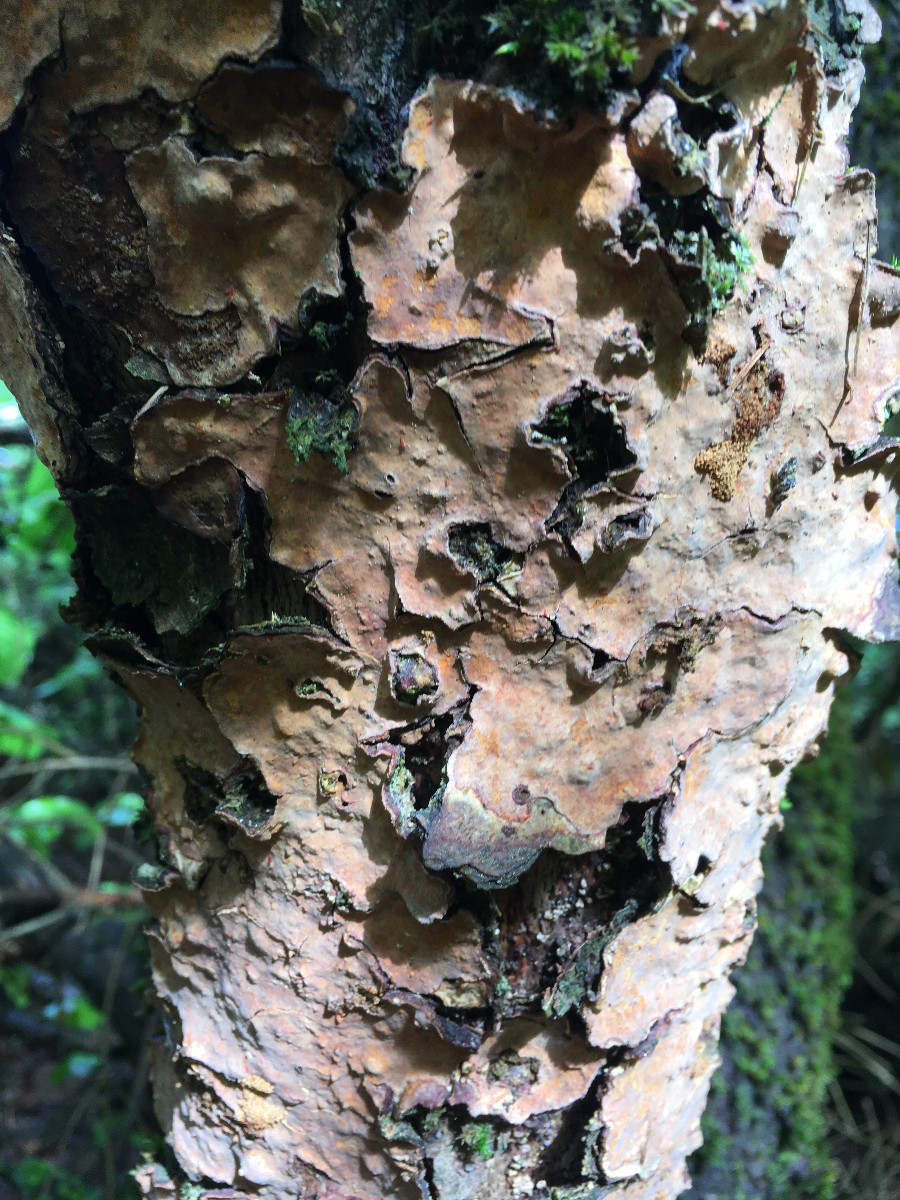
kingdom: Fungi
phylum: Basidiomycota
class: Agaricomycetes
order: Russulales
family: Stereaceae
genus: Stereum
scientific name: Stereum rugosum
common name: rynket lædersvamp
